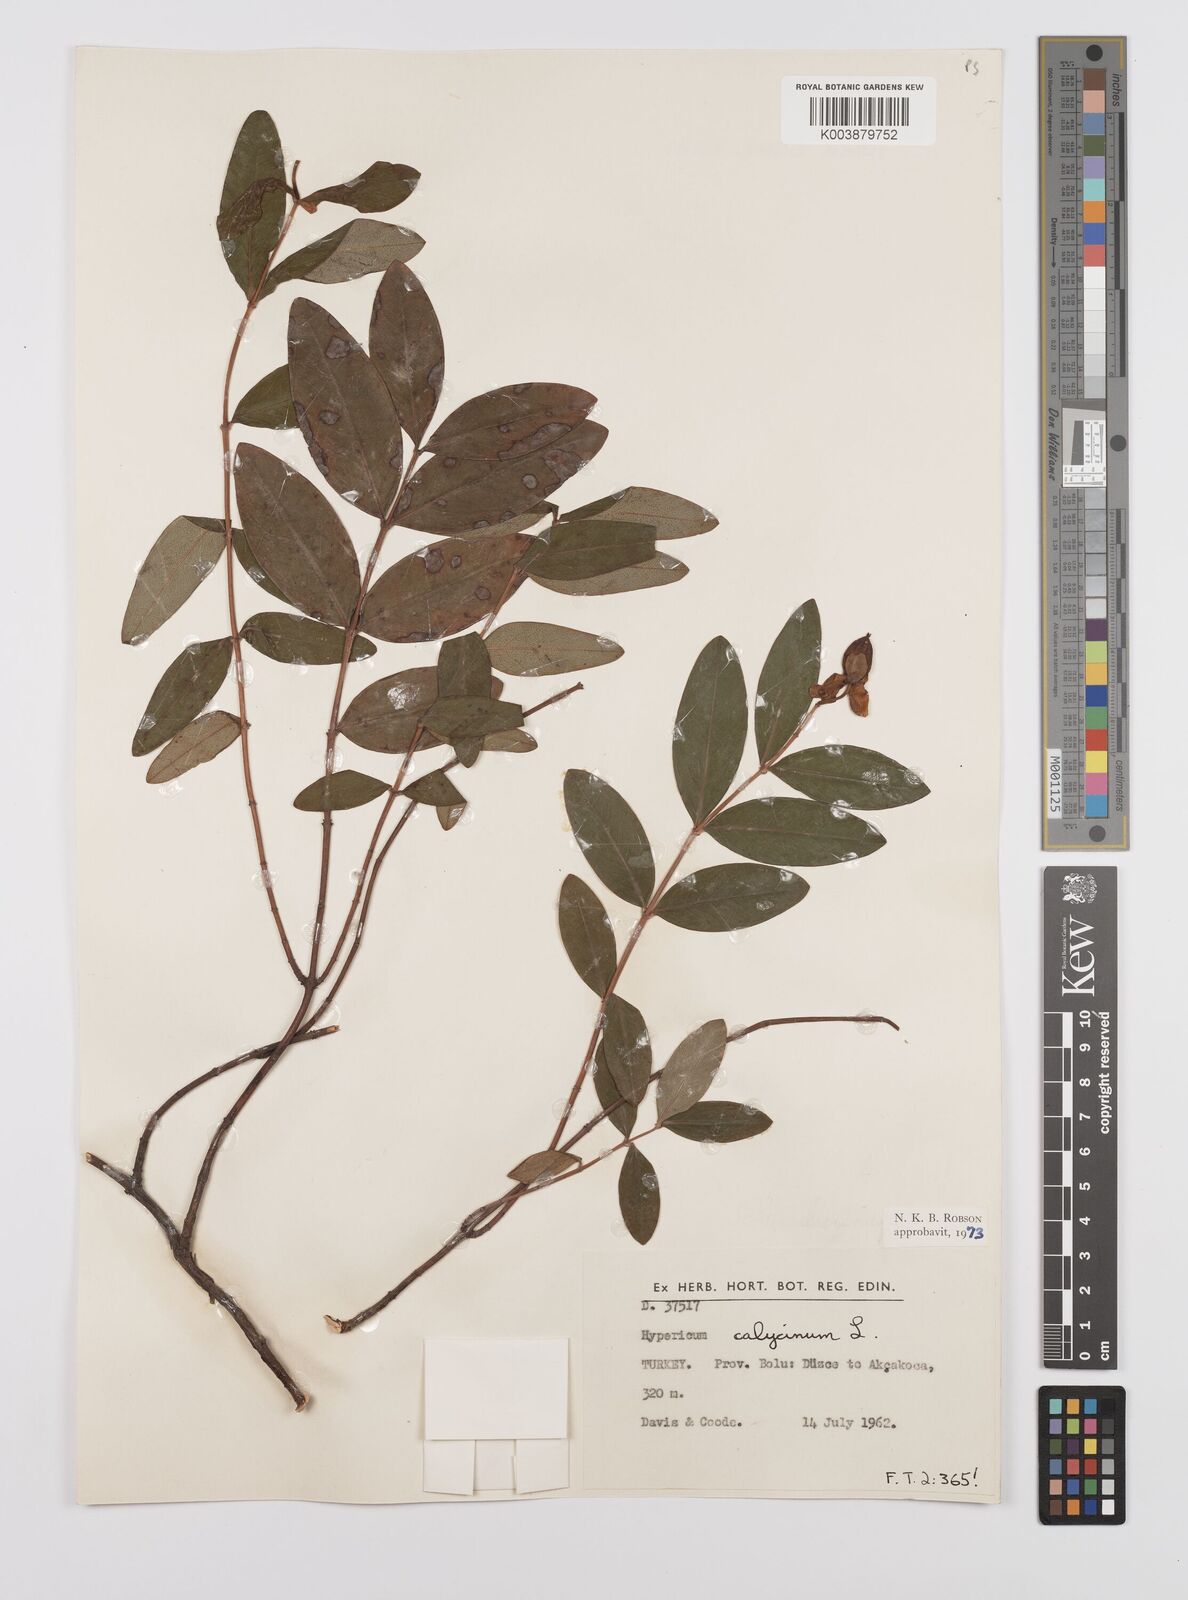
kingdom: Plantae
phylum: Tracheophyta
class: Magnoliopsida
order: Malpighiales
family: Hypericaceae
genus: Hypericum
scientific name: Hypericum calycinum
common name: Rose-of-sharon
